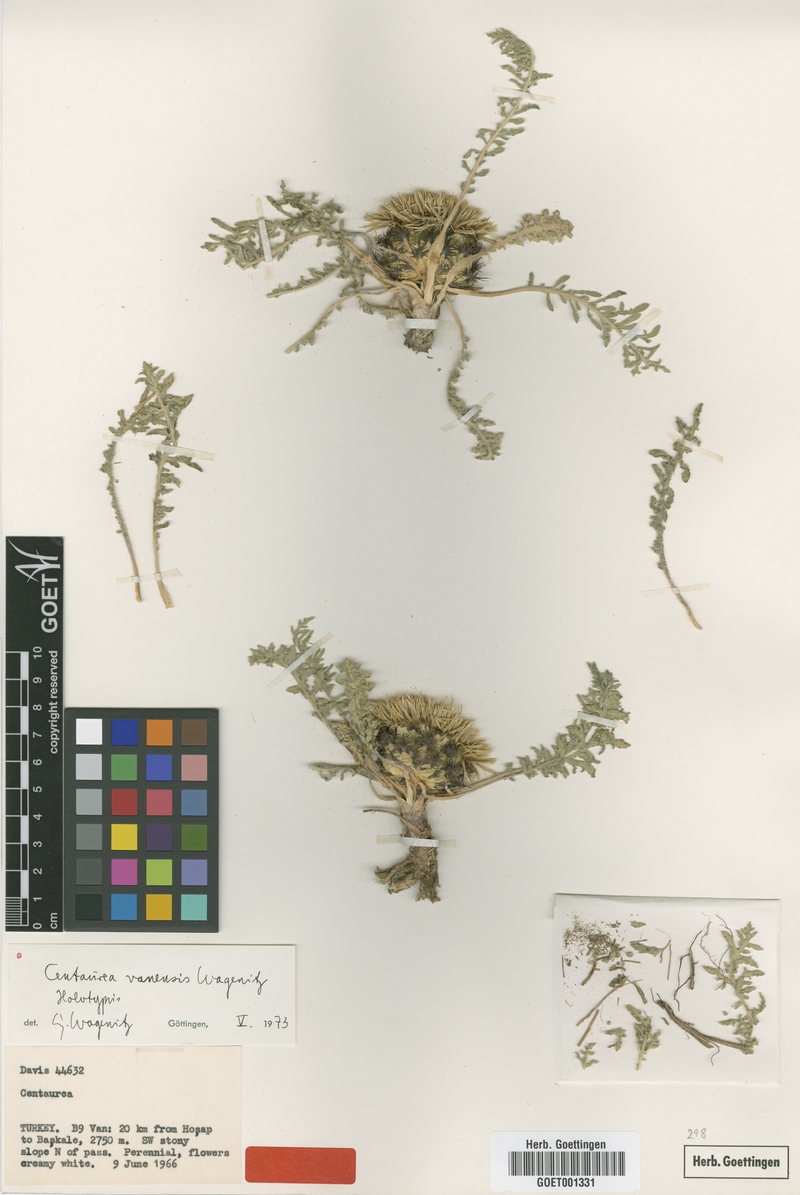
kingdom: Plantae
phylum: Tracheophyta
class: Magnoliopsida
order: Asterales
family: Asteraceae
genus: Centaurea
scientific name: Centaurea vanensis
